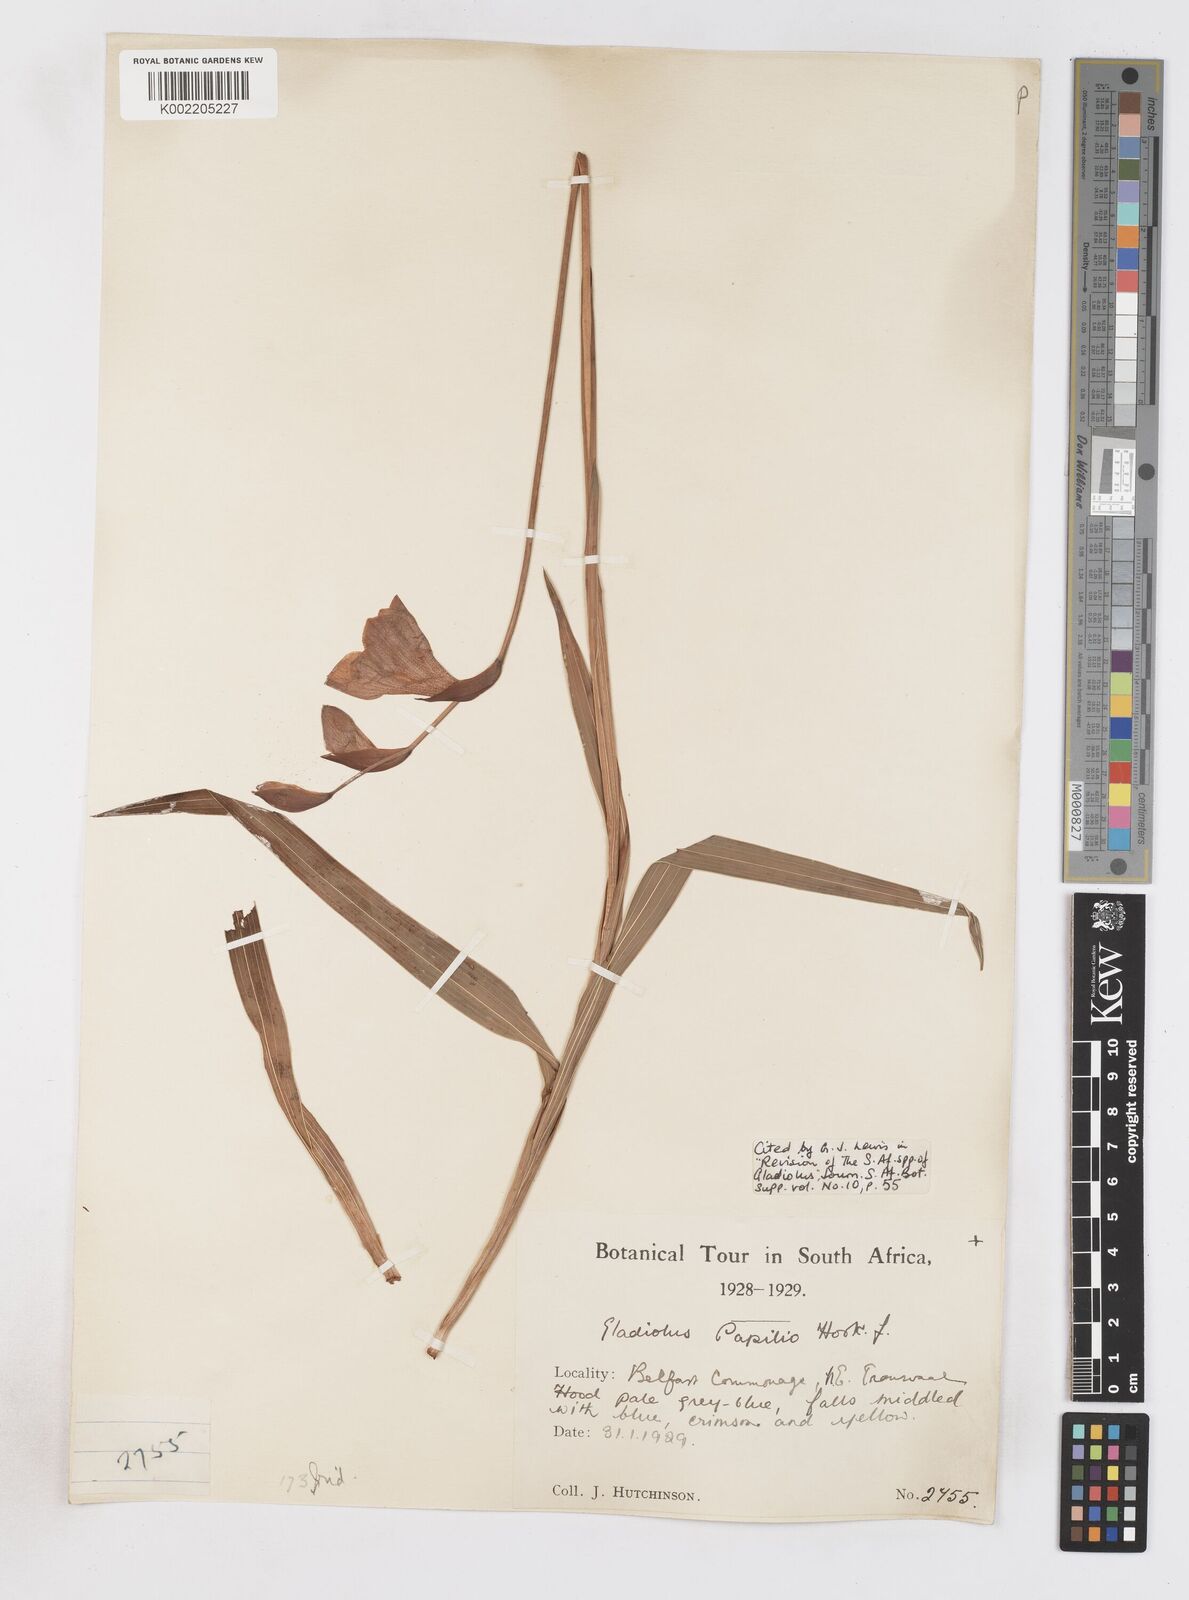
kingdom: Plantae
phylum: Tracheophyta
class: Liliopsida
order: Asparagales
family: Iridaceae
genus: Gladiolus
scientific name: Gladiolus papilio
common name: Goldblotch gladiolus
